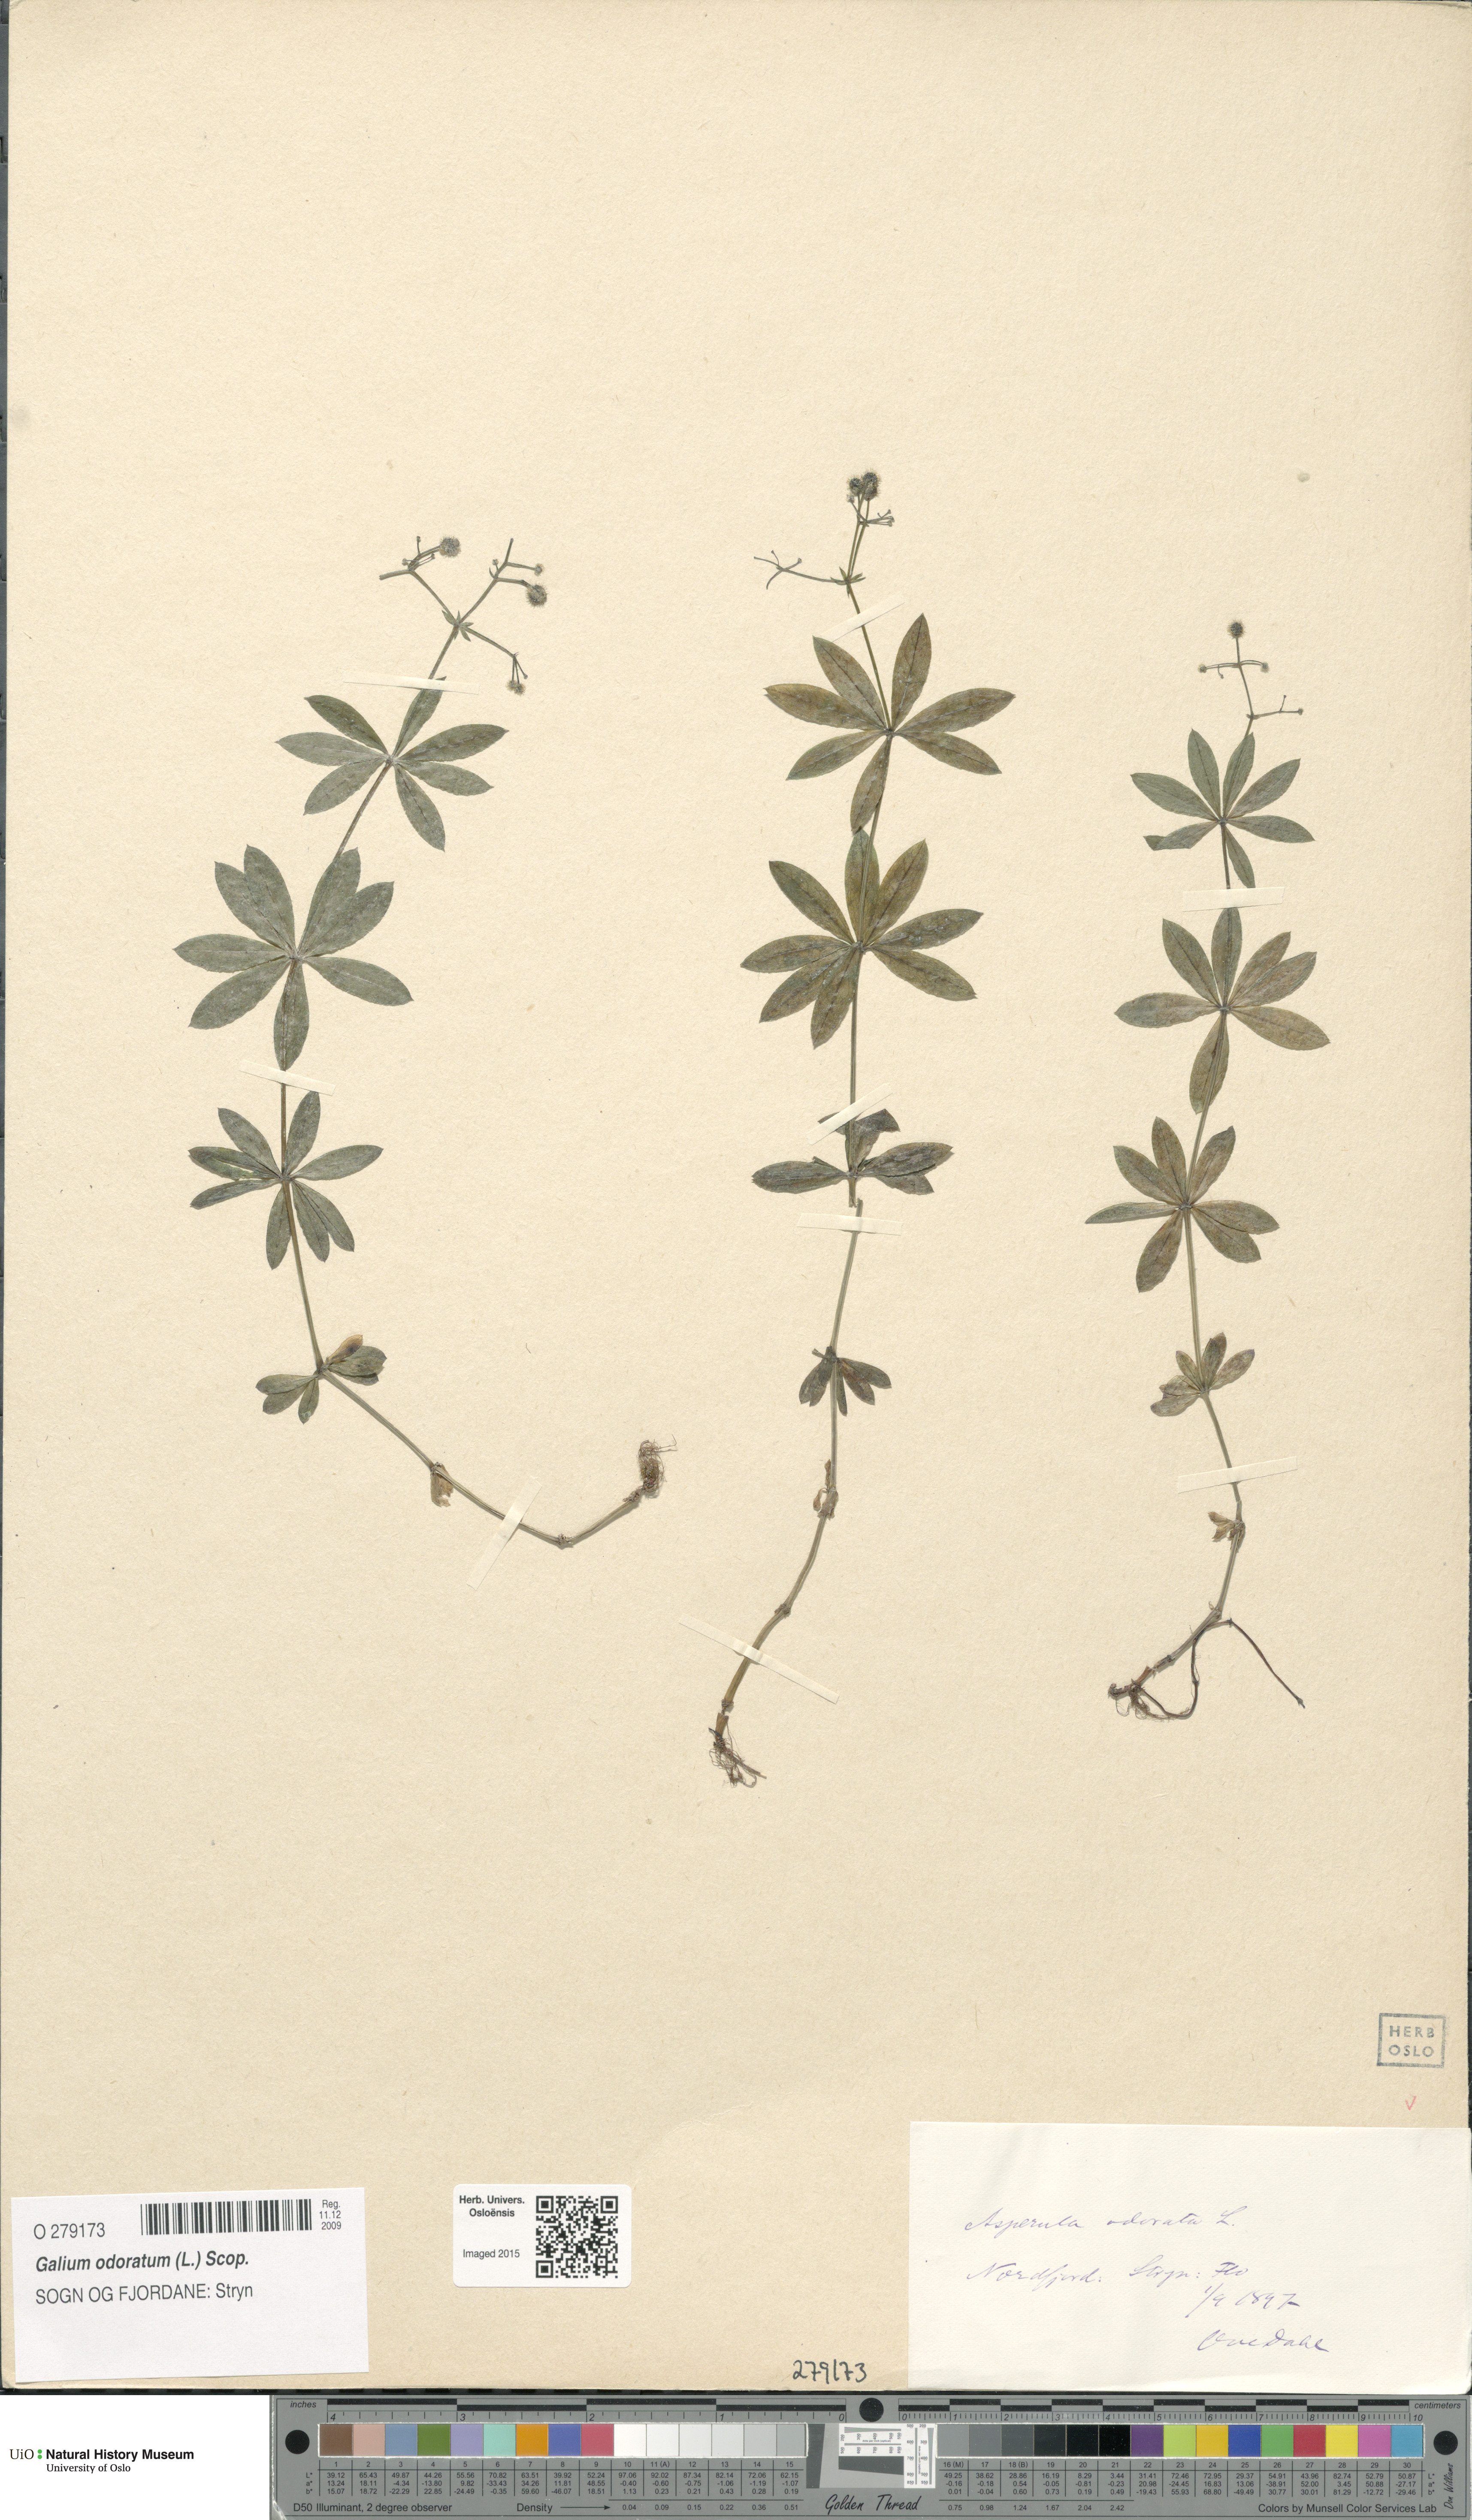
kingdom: Plantae
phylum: Tracheophyta
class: Magnoliopsida
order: Gentianales
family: Rubiaceae
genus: Galium
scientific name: Galium odoratum
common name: Sweet woodruff
